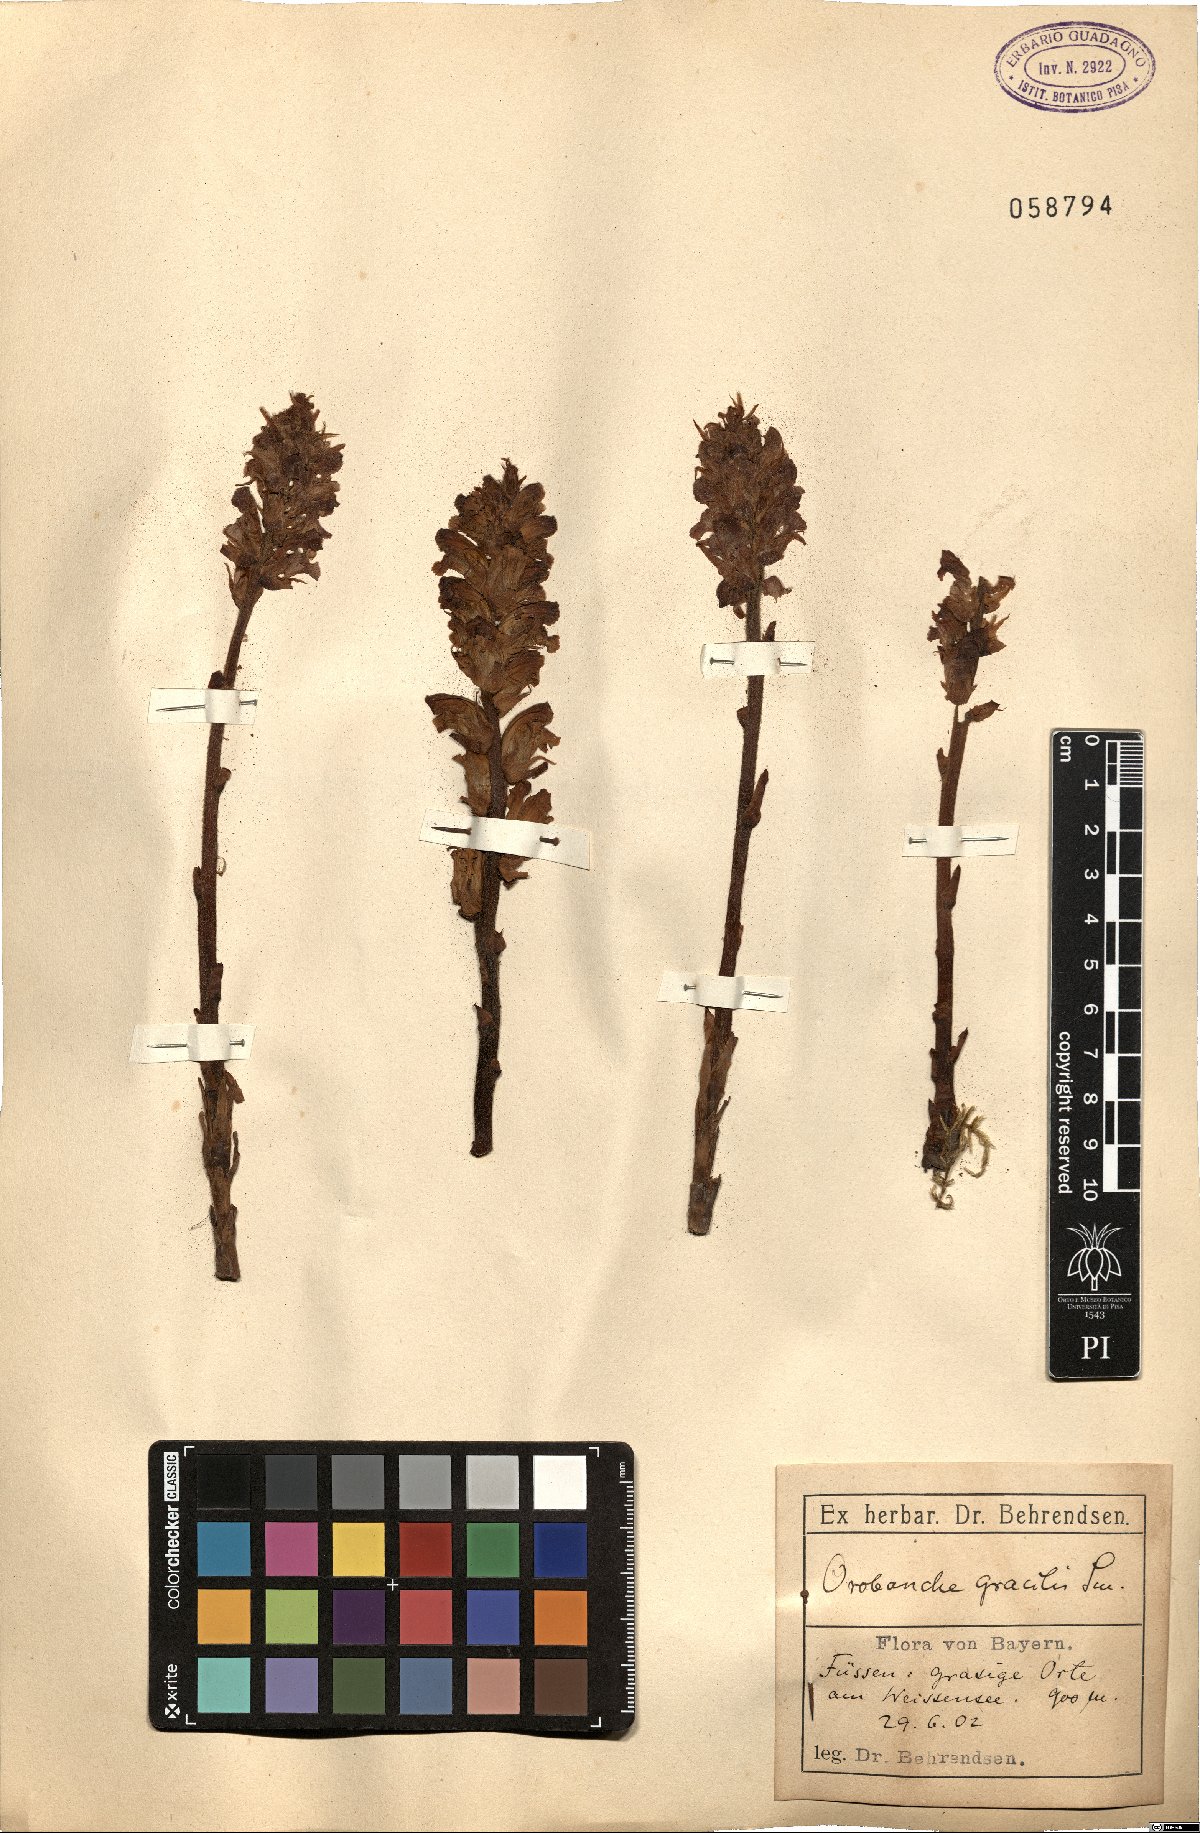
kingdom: Plantae
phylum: Tracheophyta
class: Magnoliopsida
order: Lamiales
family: Orobanchaceae
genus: Orobanche
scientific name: Orobanche gracilis
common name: Slender broomrape
